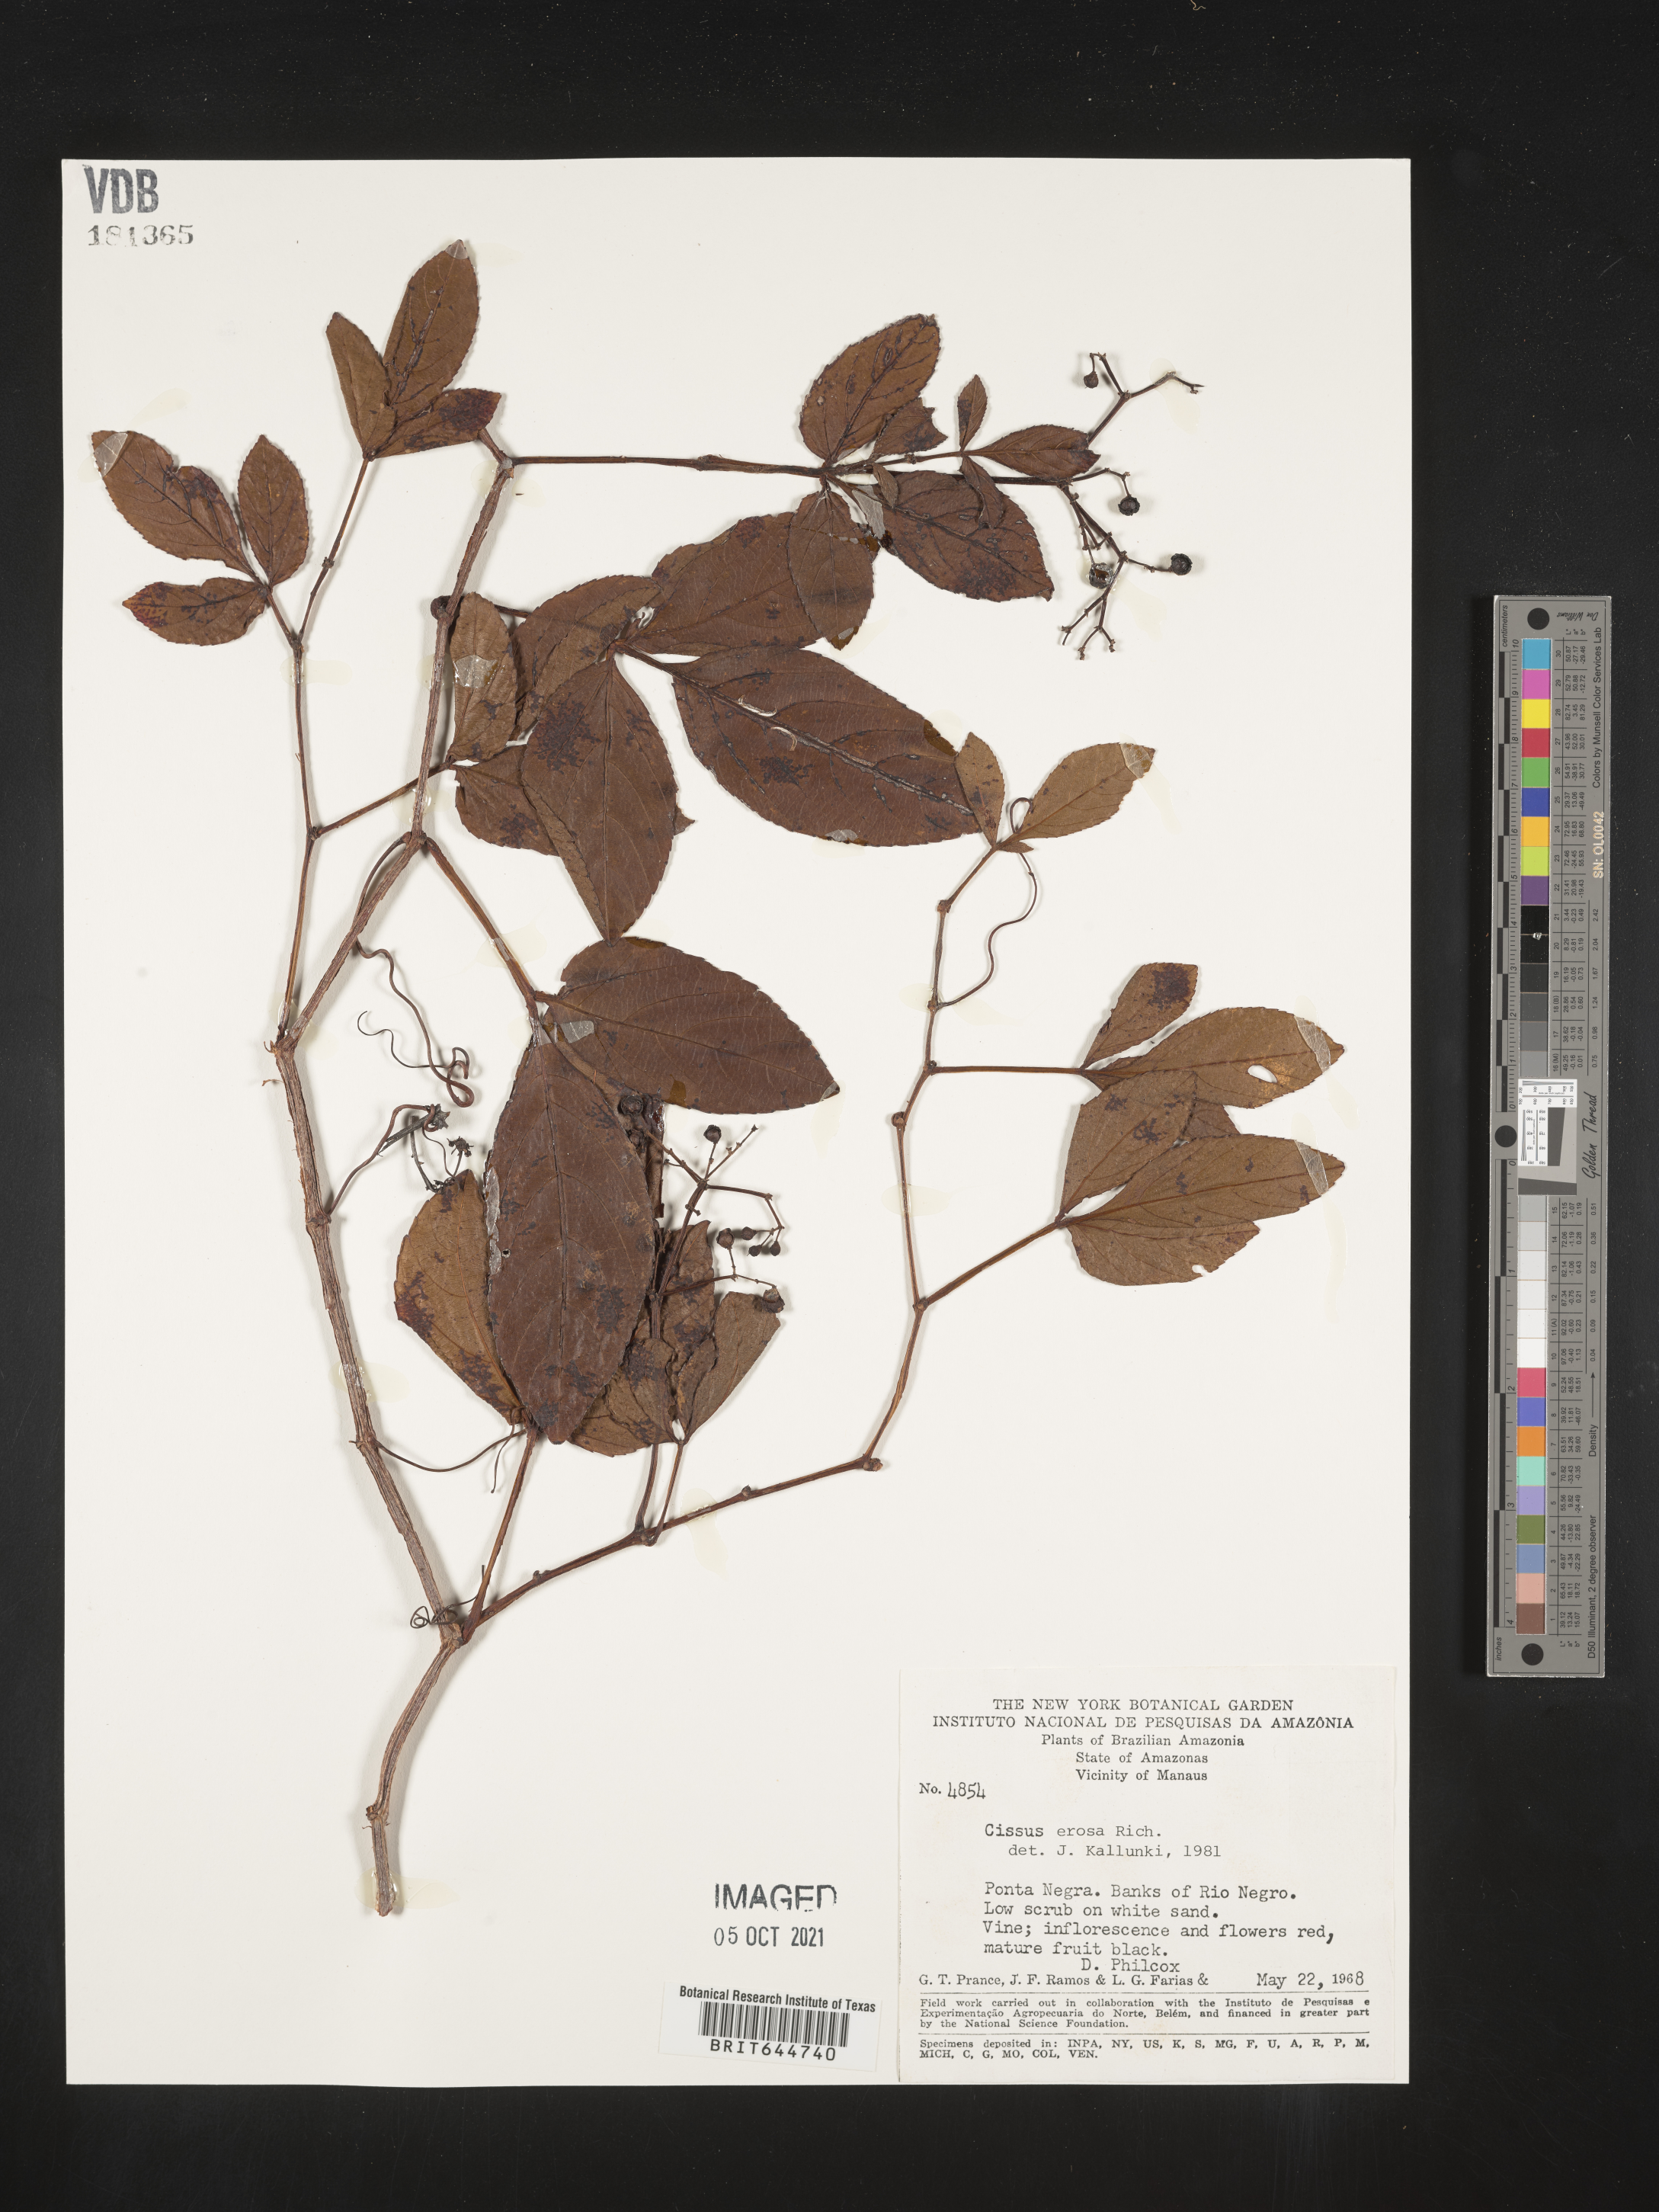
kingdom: Plantae
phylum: Tracheophyta
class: Magnoliopsida
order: Vitales
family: Vitaceae
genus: Cissus
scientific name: Cissus
